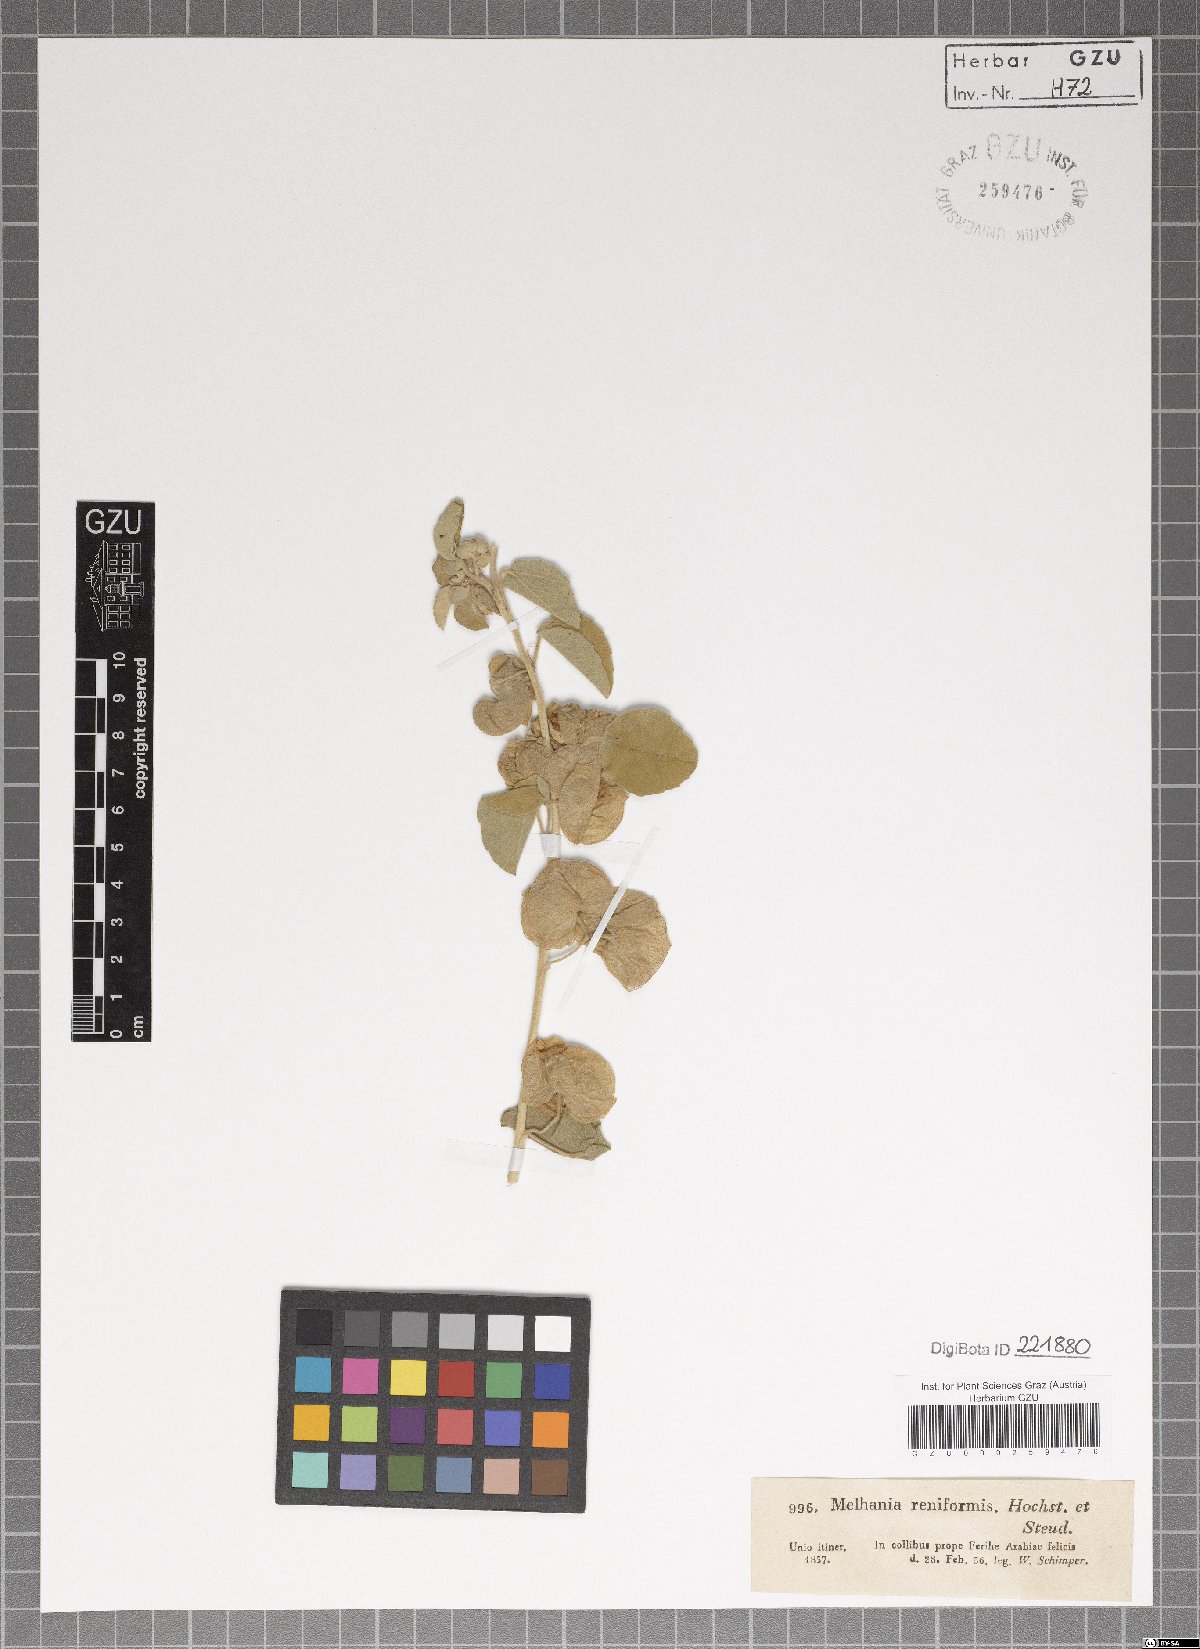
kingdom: Plantae
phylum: Tracheophyta
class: Magnoliopsida
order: Malvales
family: Malvaceae
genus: Melhania
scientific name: Melhania denhamii
